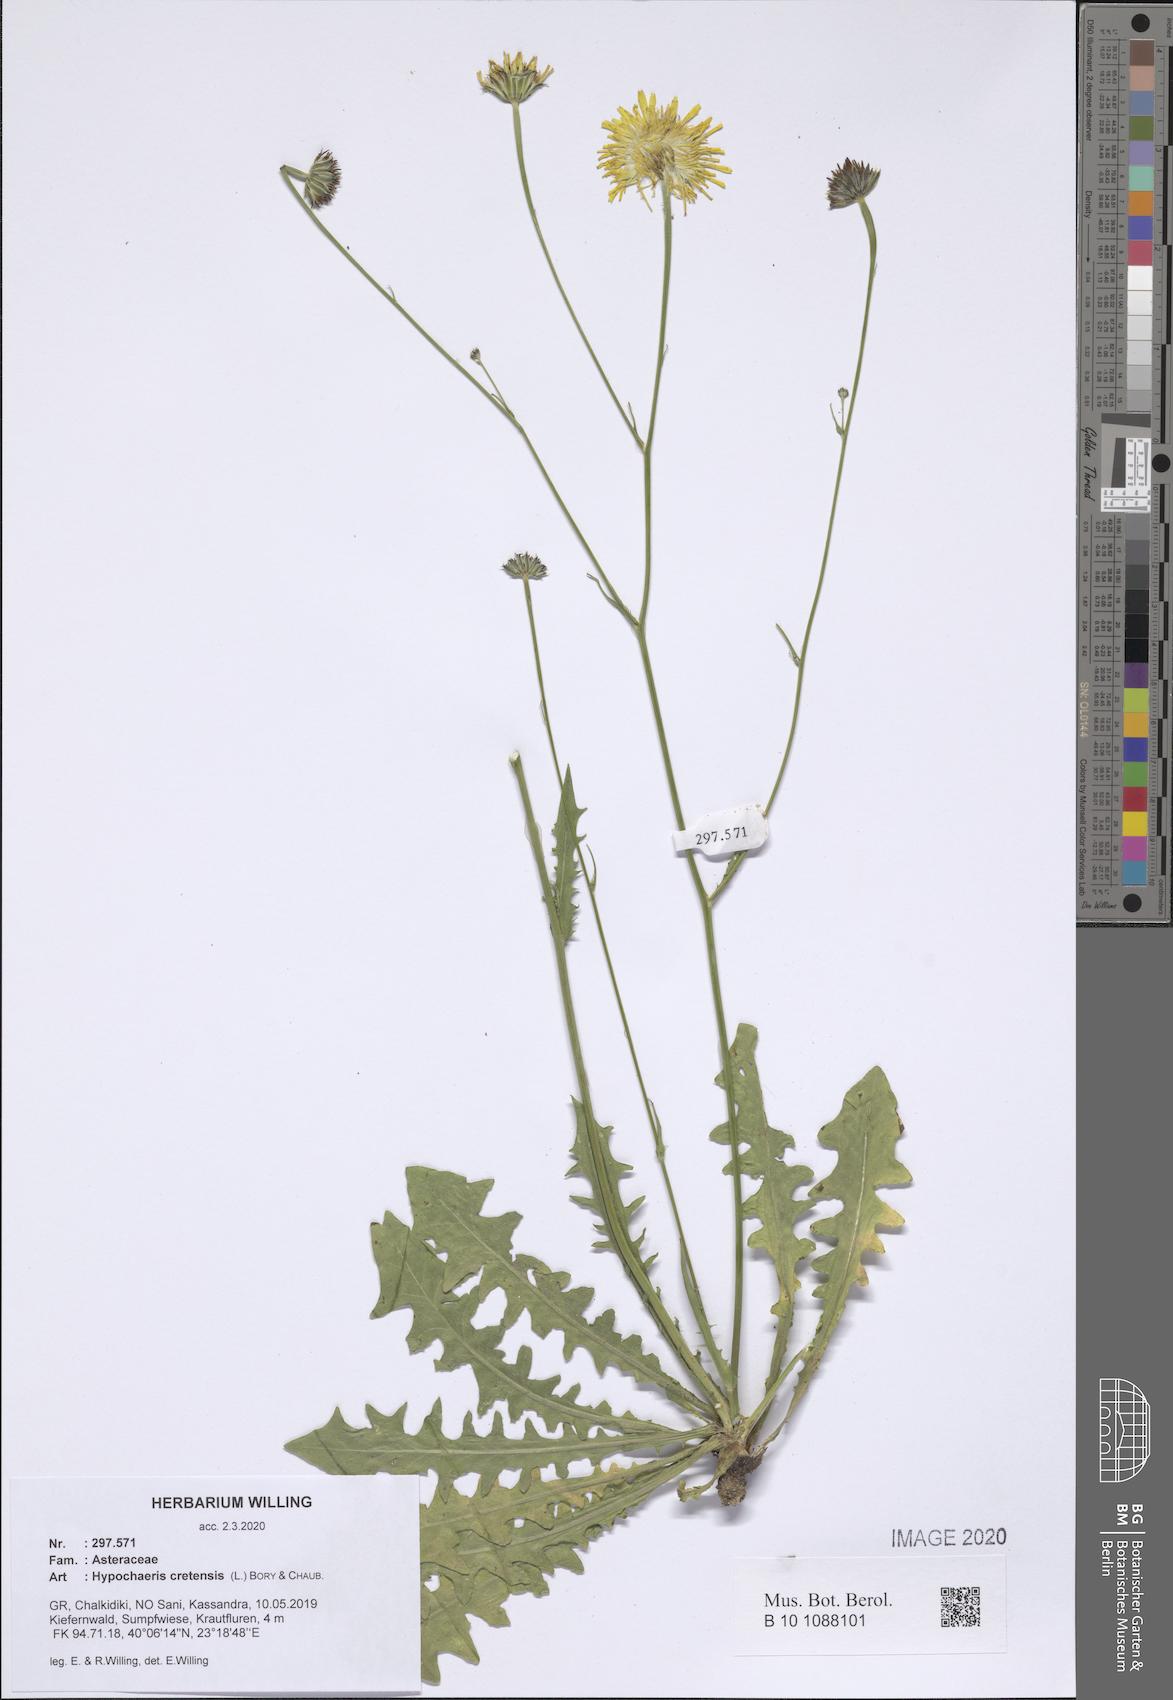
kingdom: Plantae
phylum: Tracheophyta
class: Magnoliopsida
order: Asterales
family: Asteraceae
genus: Hypochaeris
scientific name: Hypochaeris cretensis
